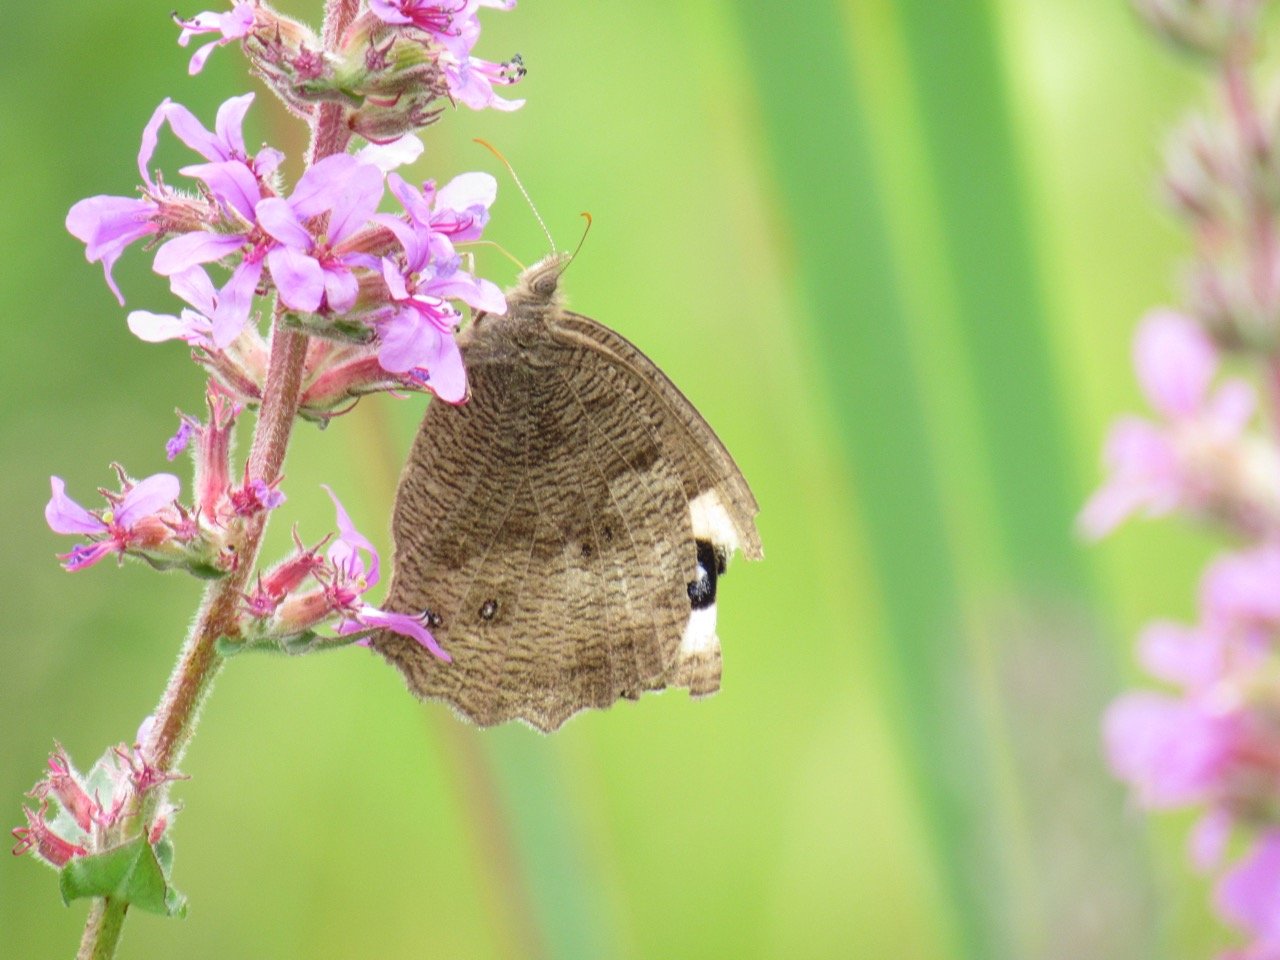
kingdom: Animalia
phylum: Arthropoda
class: Insecta
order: Lepidoptera
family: Nymphalidae
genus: Cercyonis
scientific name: Cercyonis pegala
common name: Common Wood-Nymph
